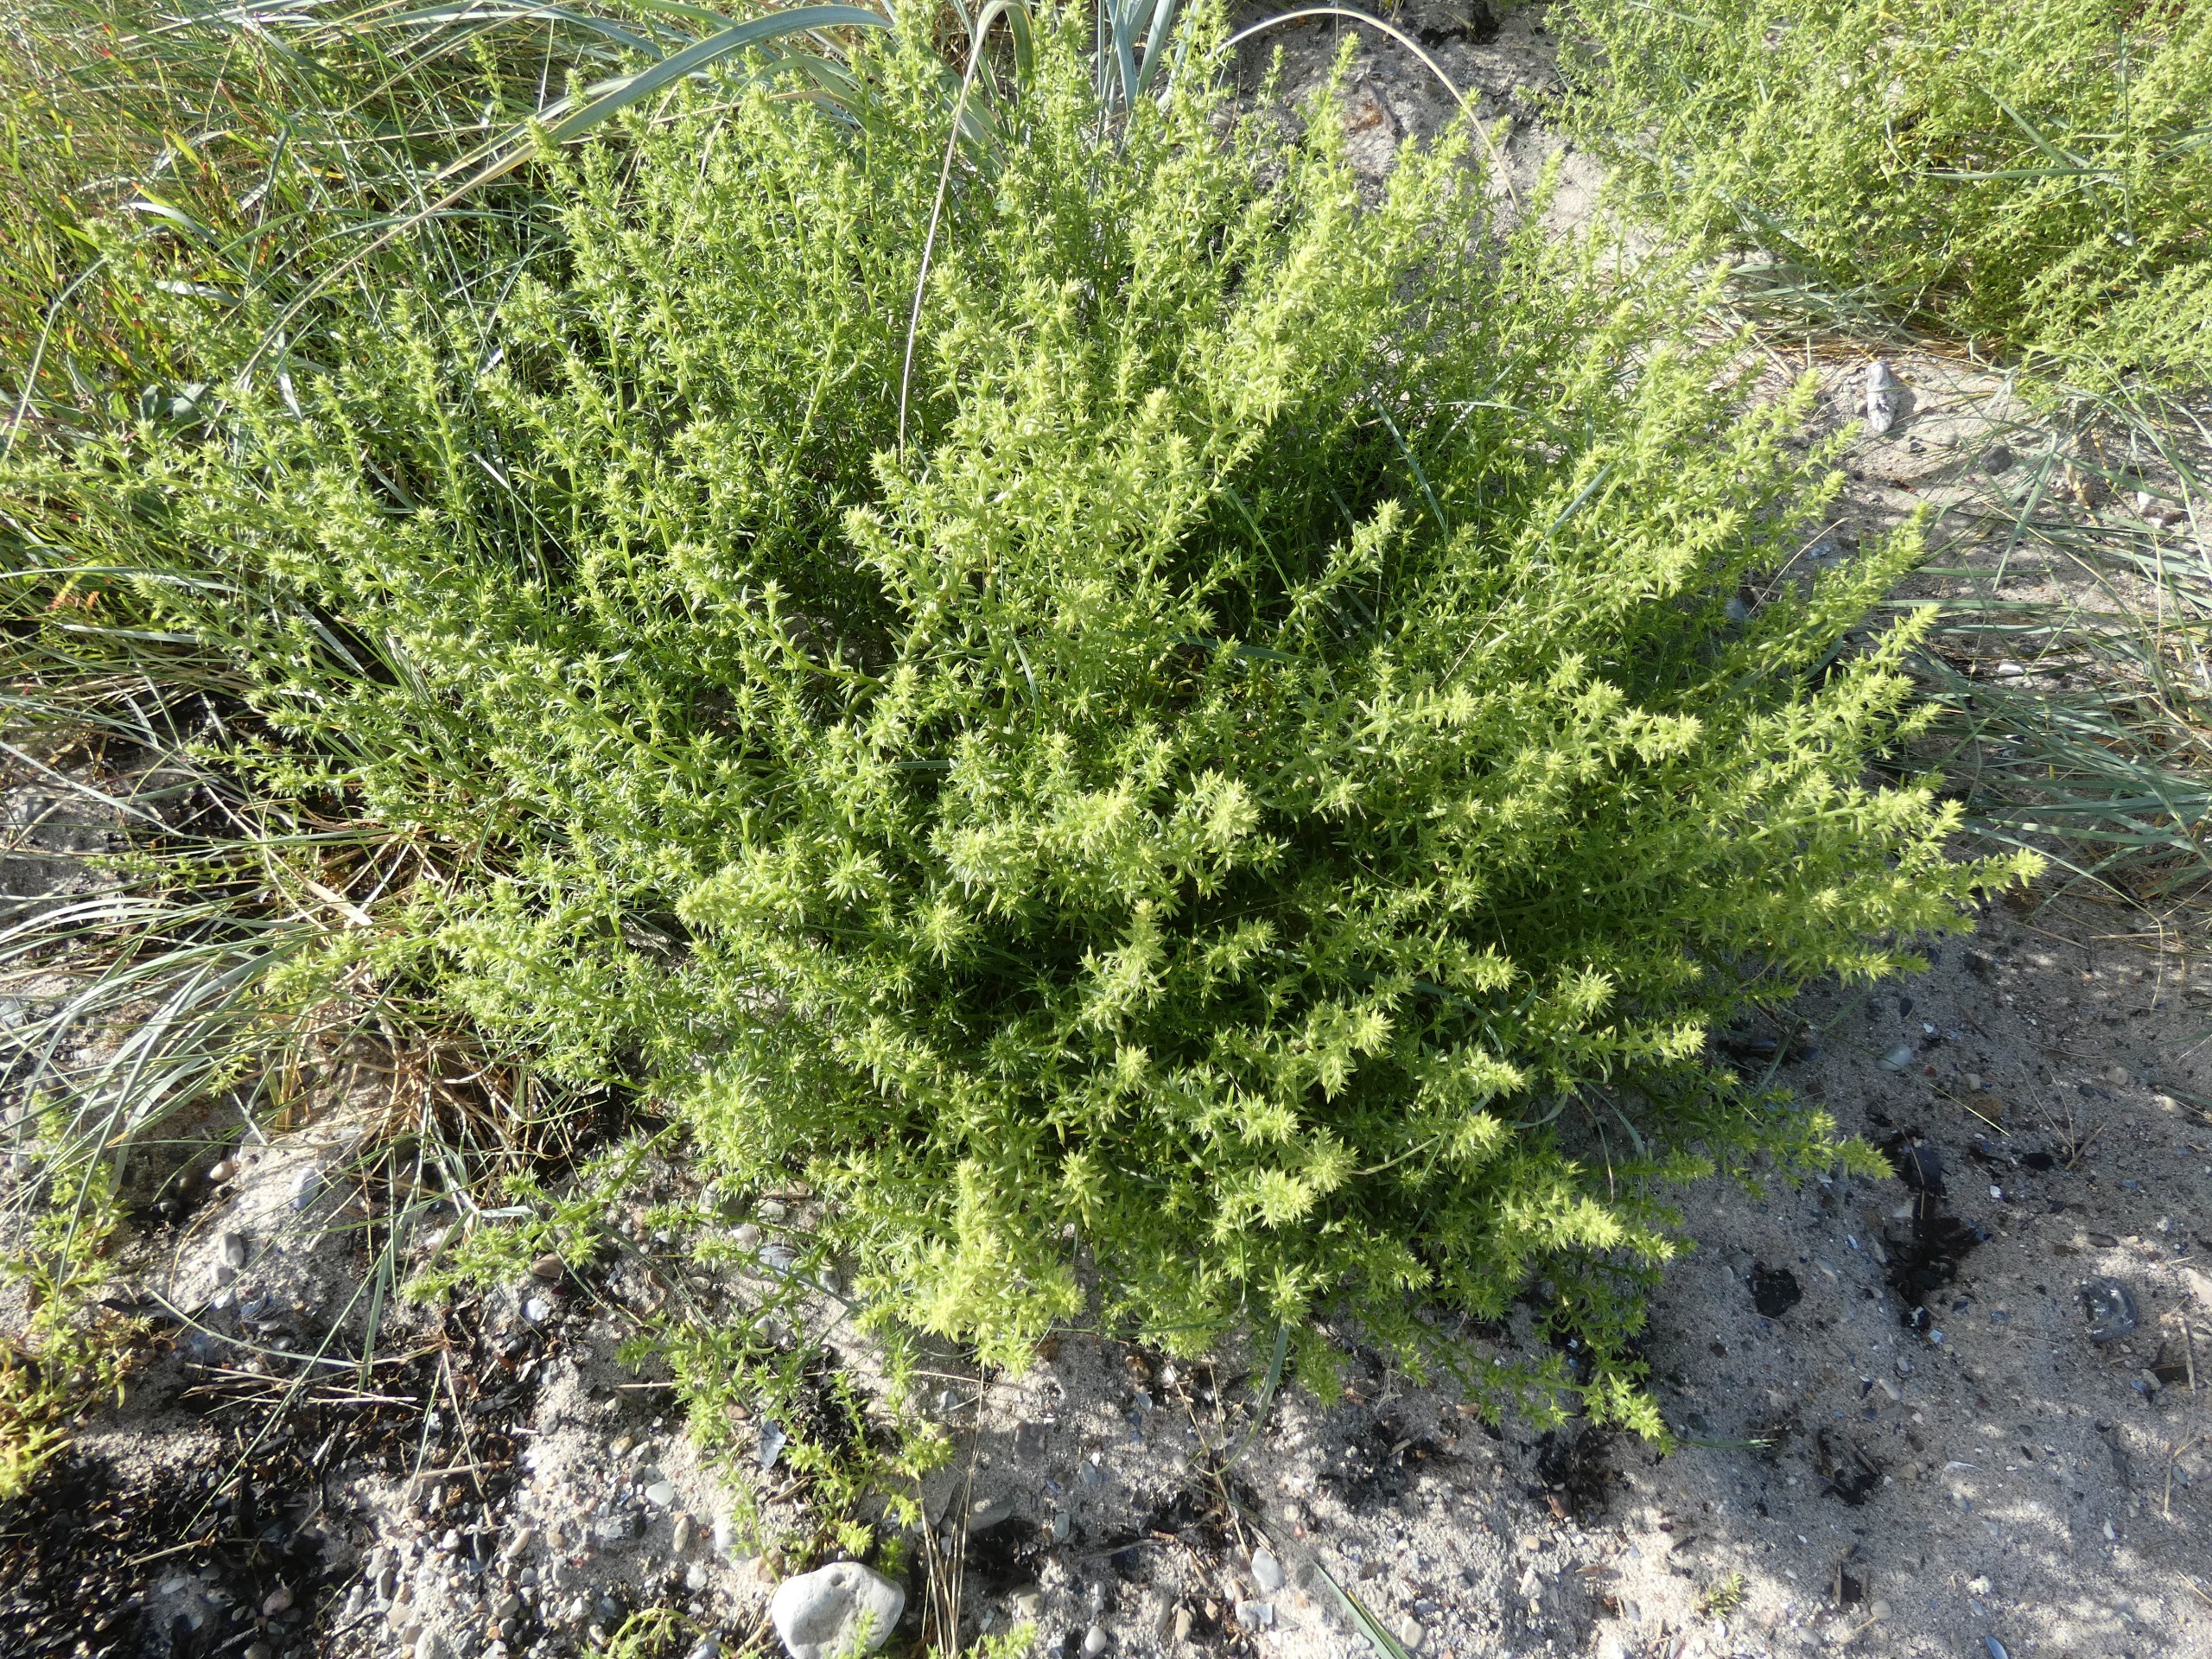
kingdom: Plantae
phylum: Tracheophyta
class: Magnoliopsida
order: Caryophyllales
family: Amaranthaceae
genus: Salsola
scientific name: Salsola kali
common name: Sodaurt
